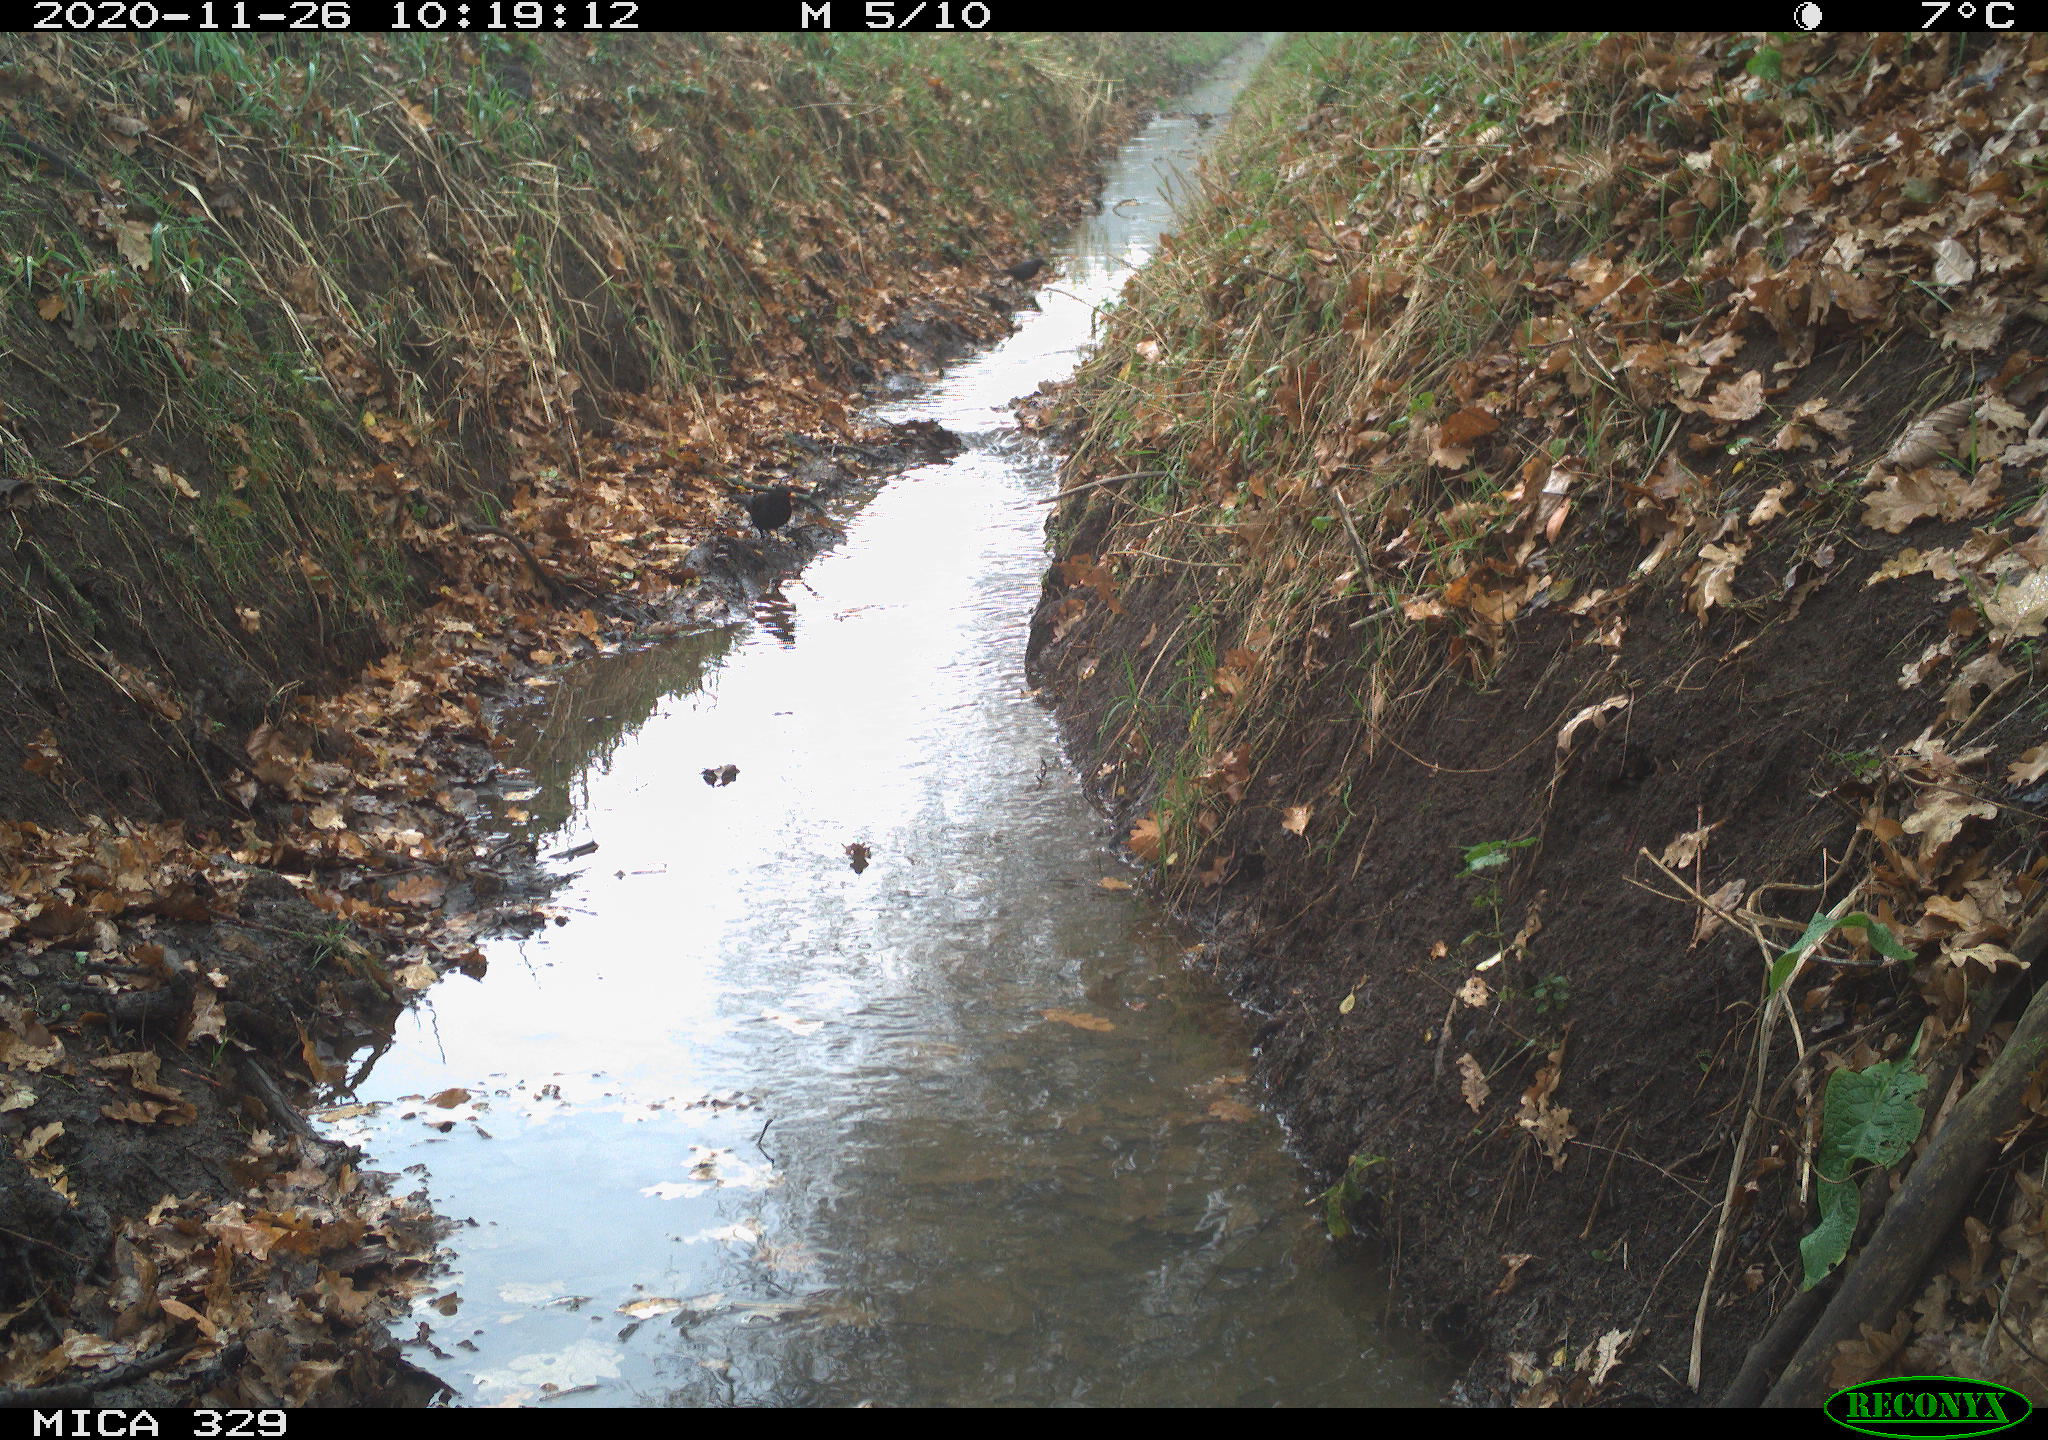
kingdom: Animalia
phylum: Chordata
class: Aves
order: Passeriformes
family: Turdidae
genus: Turdus
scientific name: Turdus merula
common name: Common blackbird
